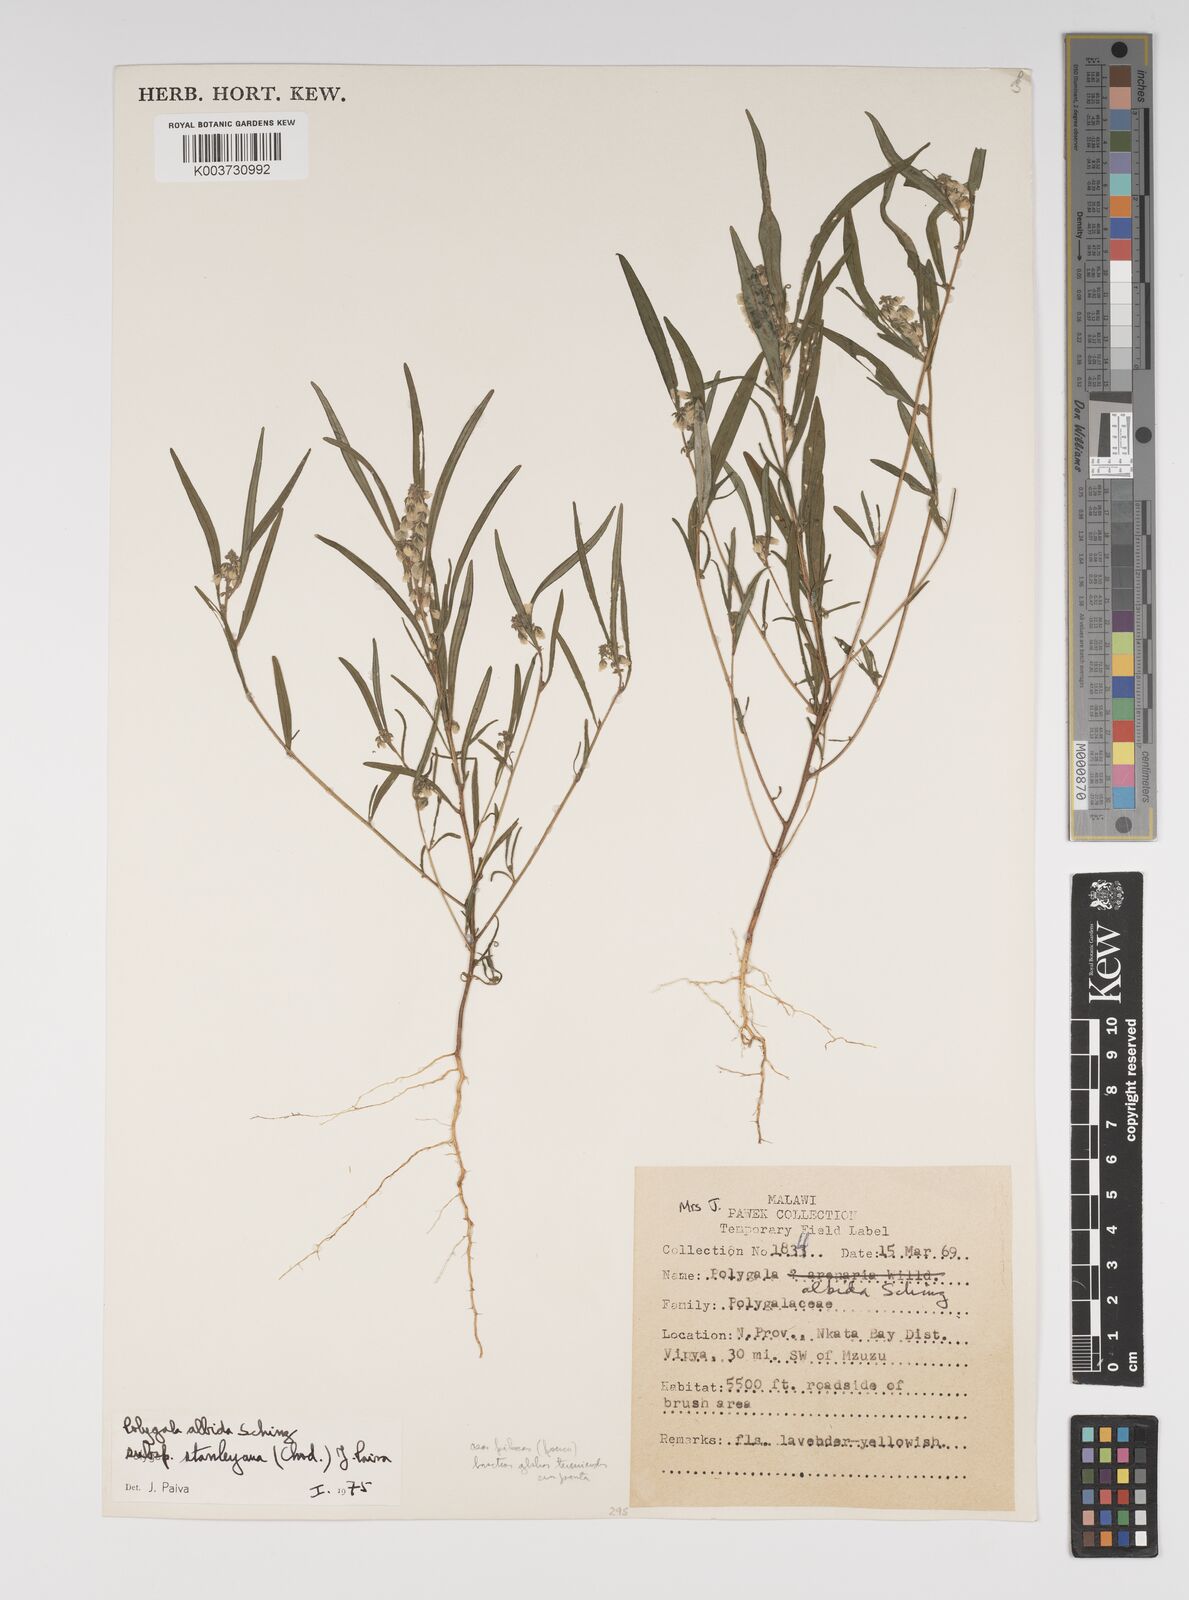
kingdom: Plantae
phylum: Tracheophyta
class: Magnoliopsida
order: Fabales
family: Polygalaceae
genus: Polygala
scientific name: Polygala albida
